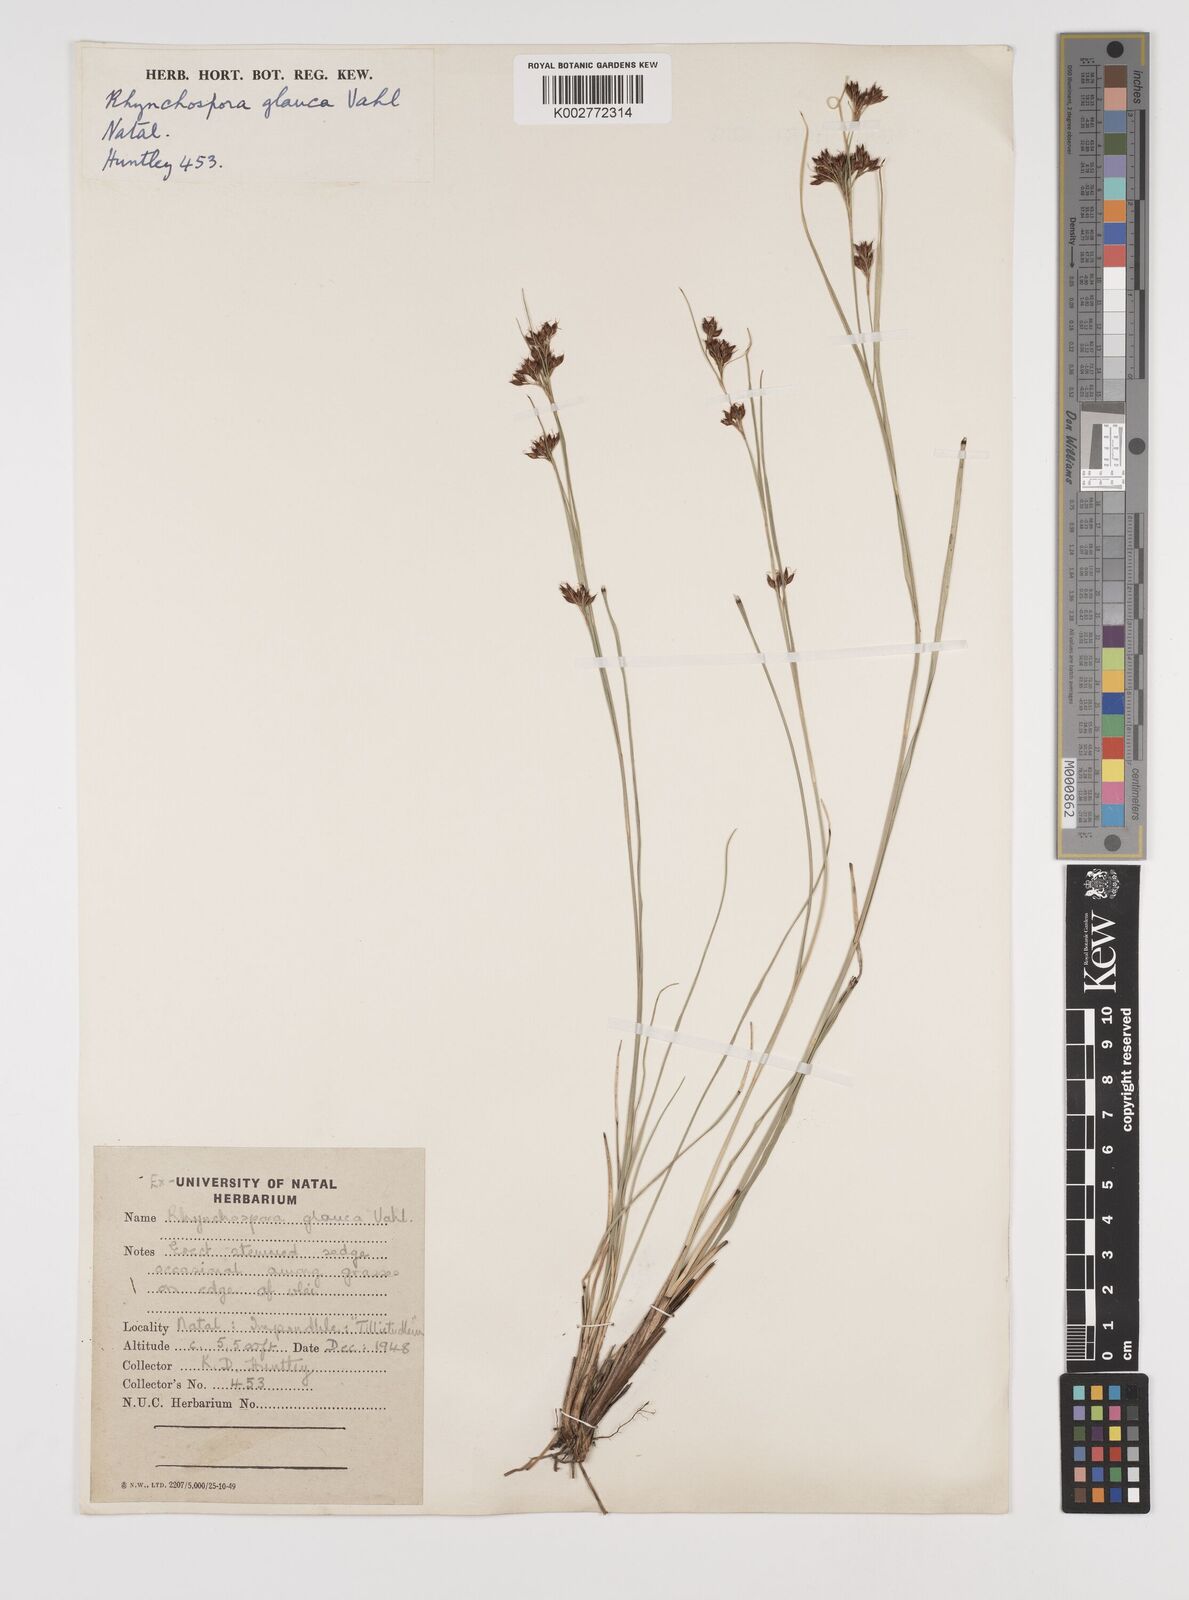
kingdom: Plantae
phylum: Tracheophyta
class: Liliopsida
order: Poales
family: Cyperaceae
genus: Rhynchospora
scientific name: Rhynchospora rugosa
